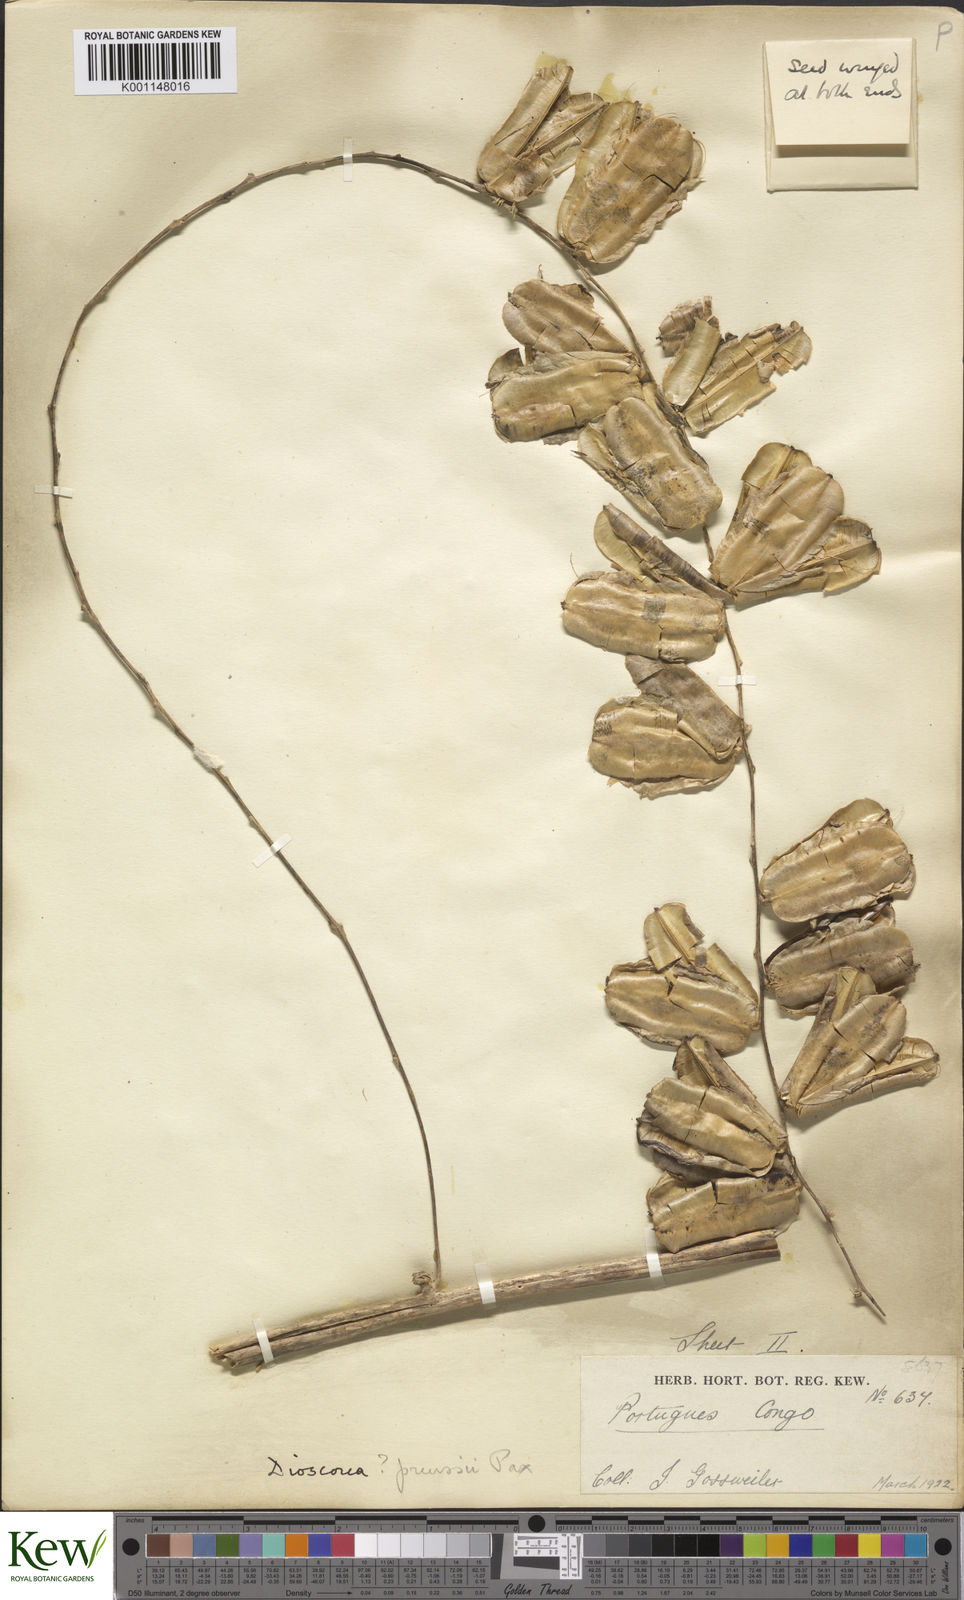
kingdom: Plantae
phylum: Tracheophyta
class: Liliopsida
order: Dioscoreales
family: Dioscoreaceae
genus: Dioscorea
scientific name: Dioscorea preussii
